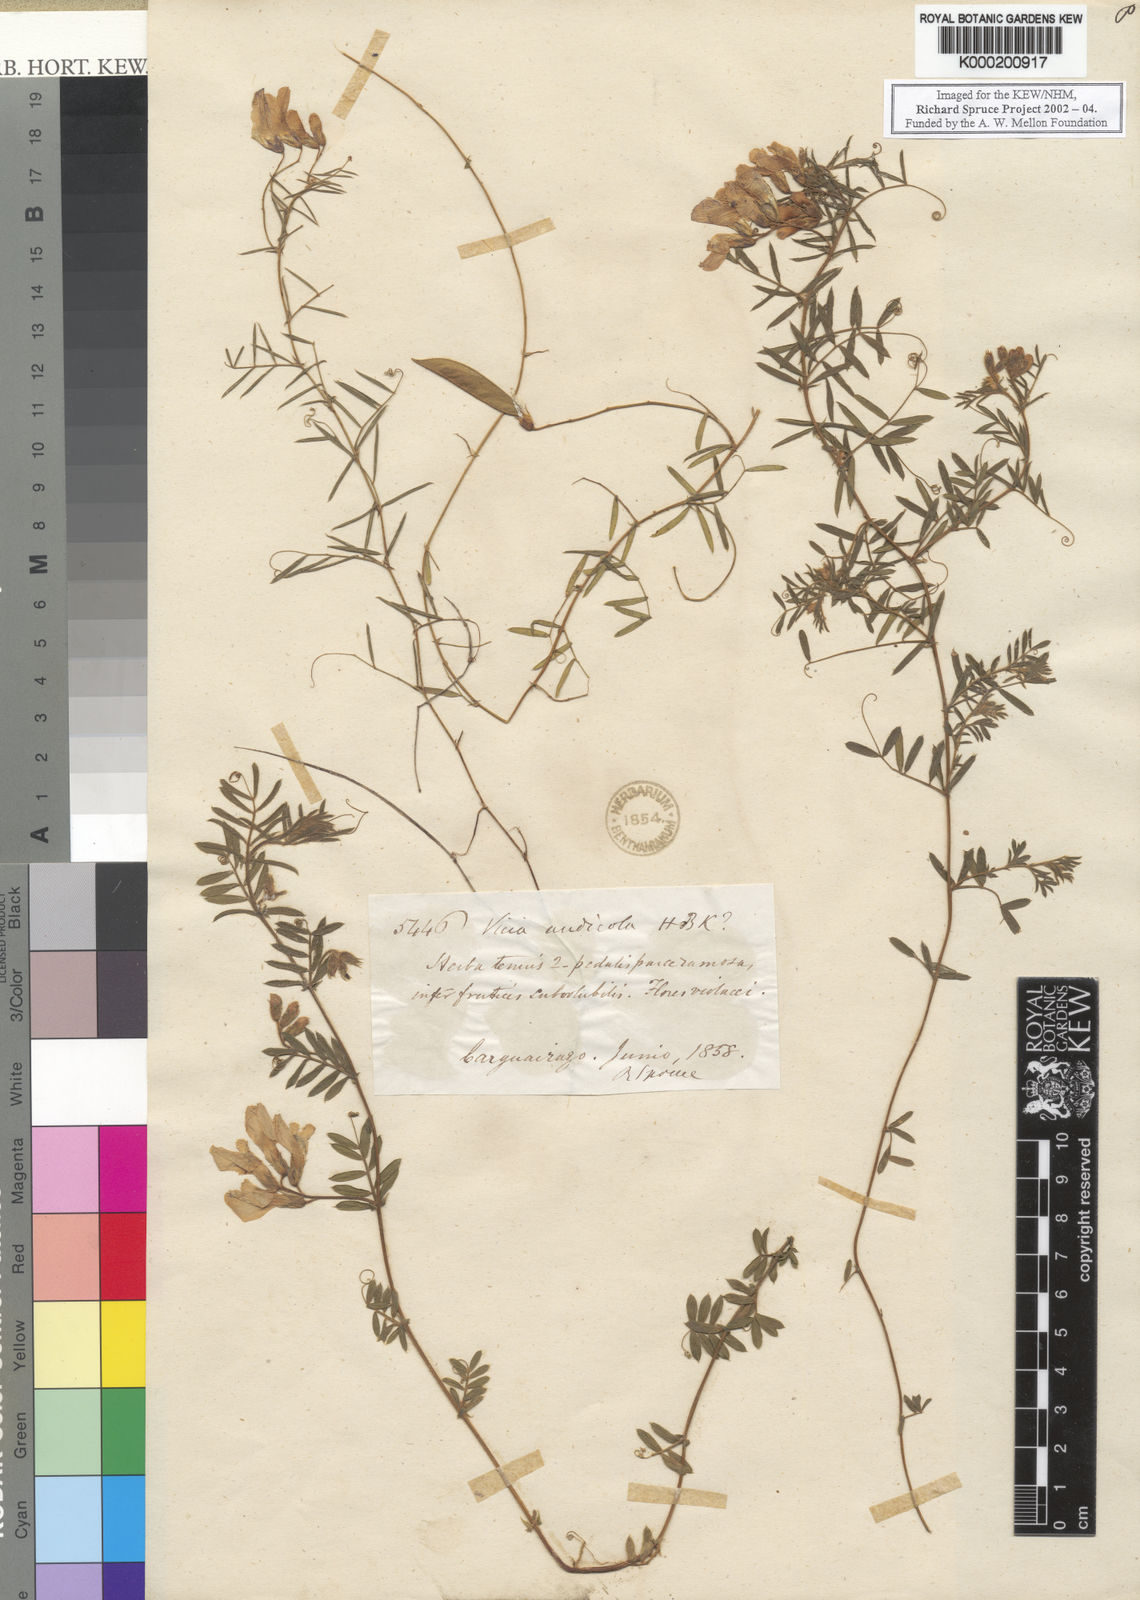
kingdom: Plantae
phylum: Tracheophyta
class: Magnoliopsida
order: Fabales
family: Fabaceae
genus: Vicia
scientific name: Vicia andicola
